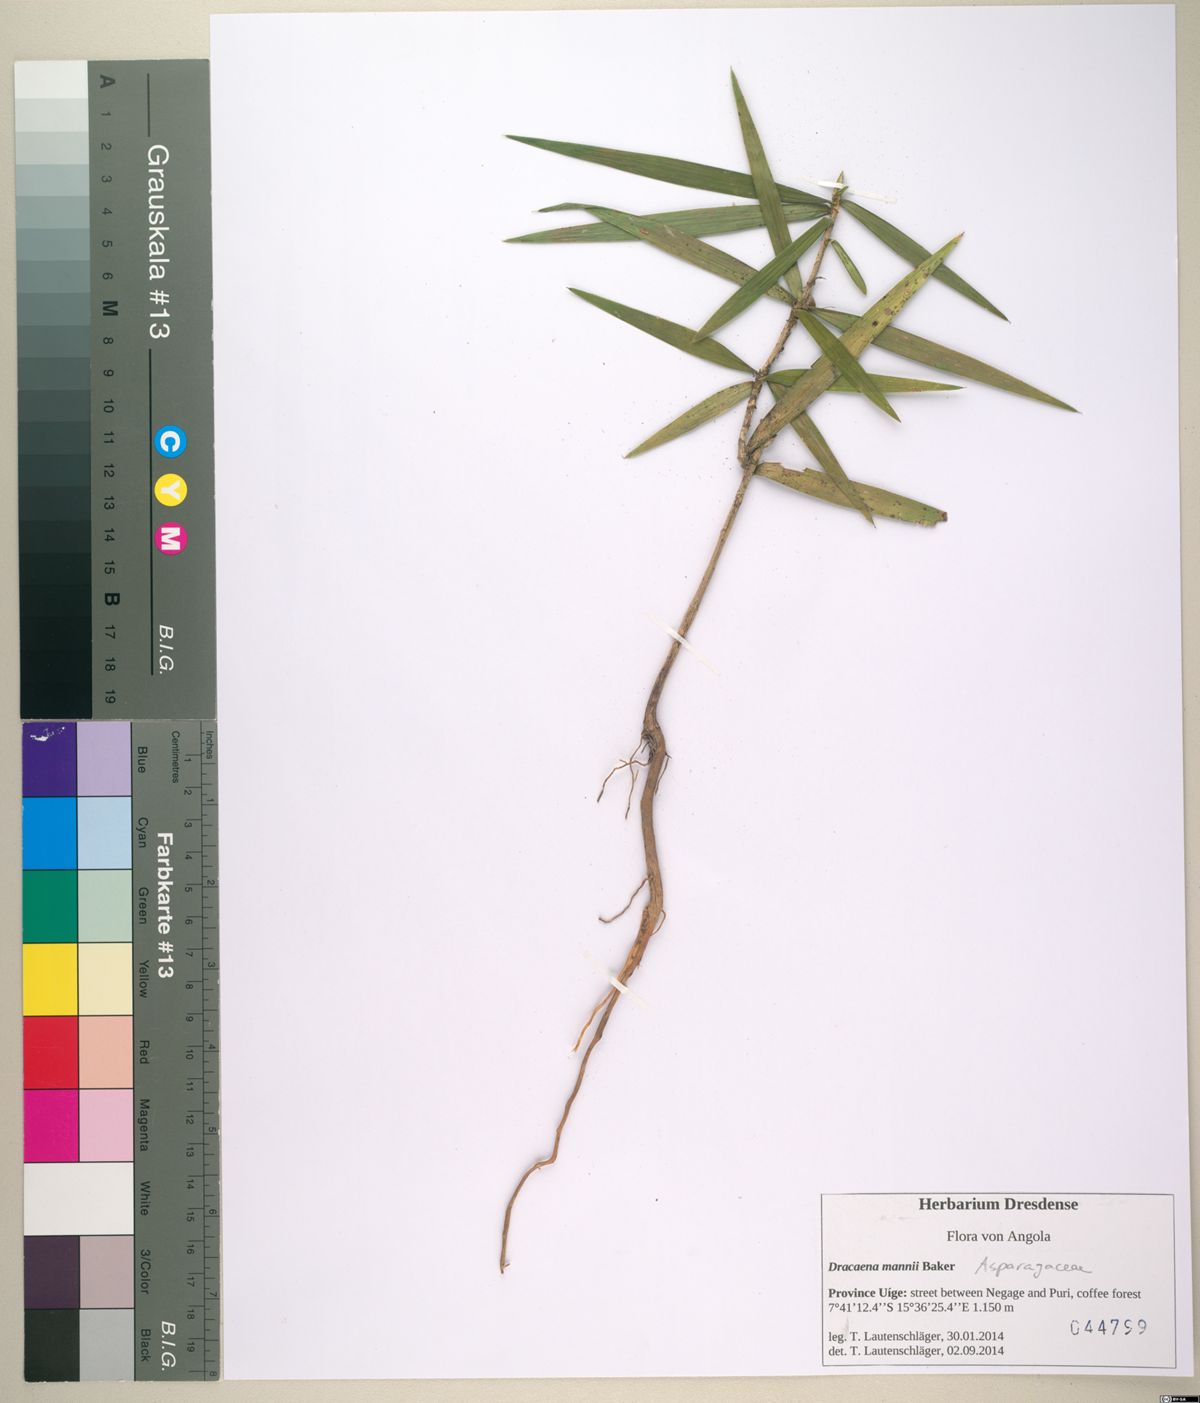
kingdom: Plantae
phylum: Tracheophyta
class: Liliopsida
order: Asparagales
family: Asparagaceae
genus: Dracaena
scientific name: Dracaena mannii
